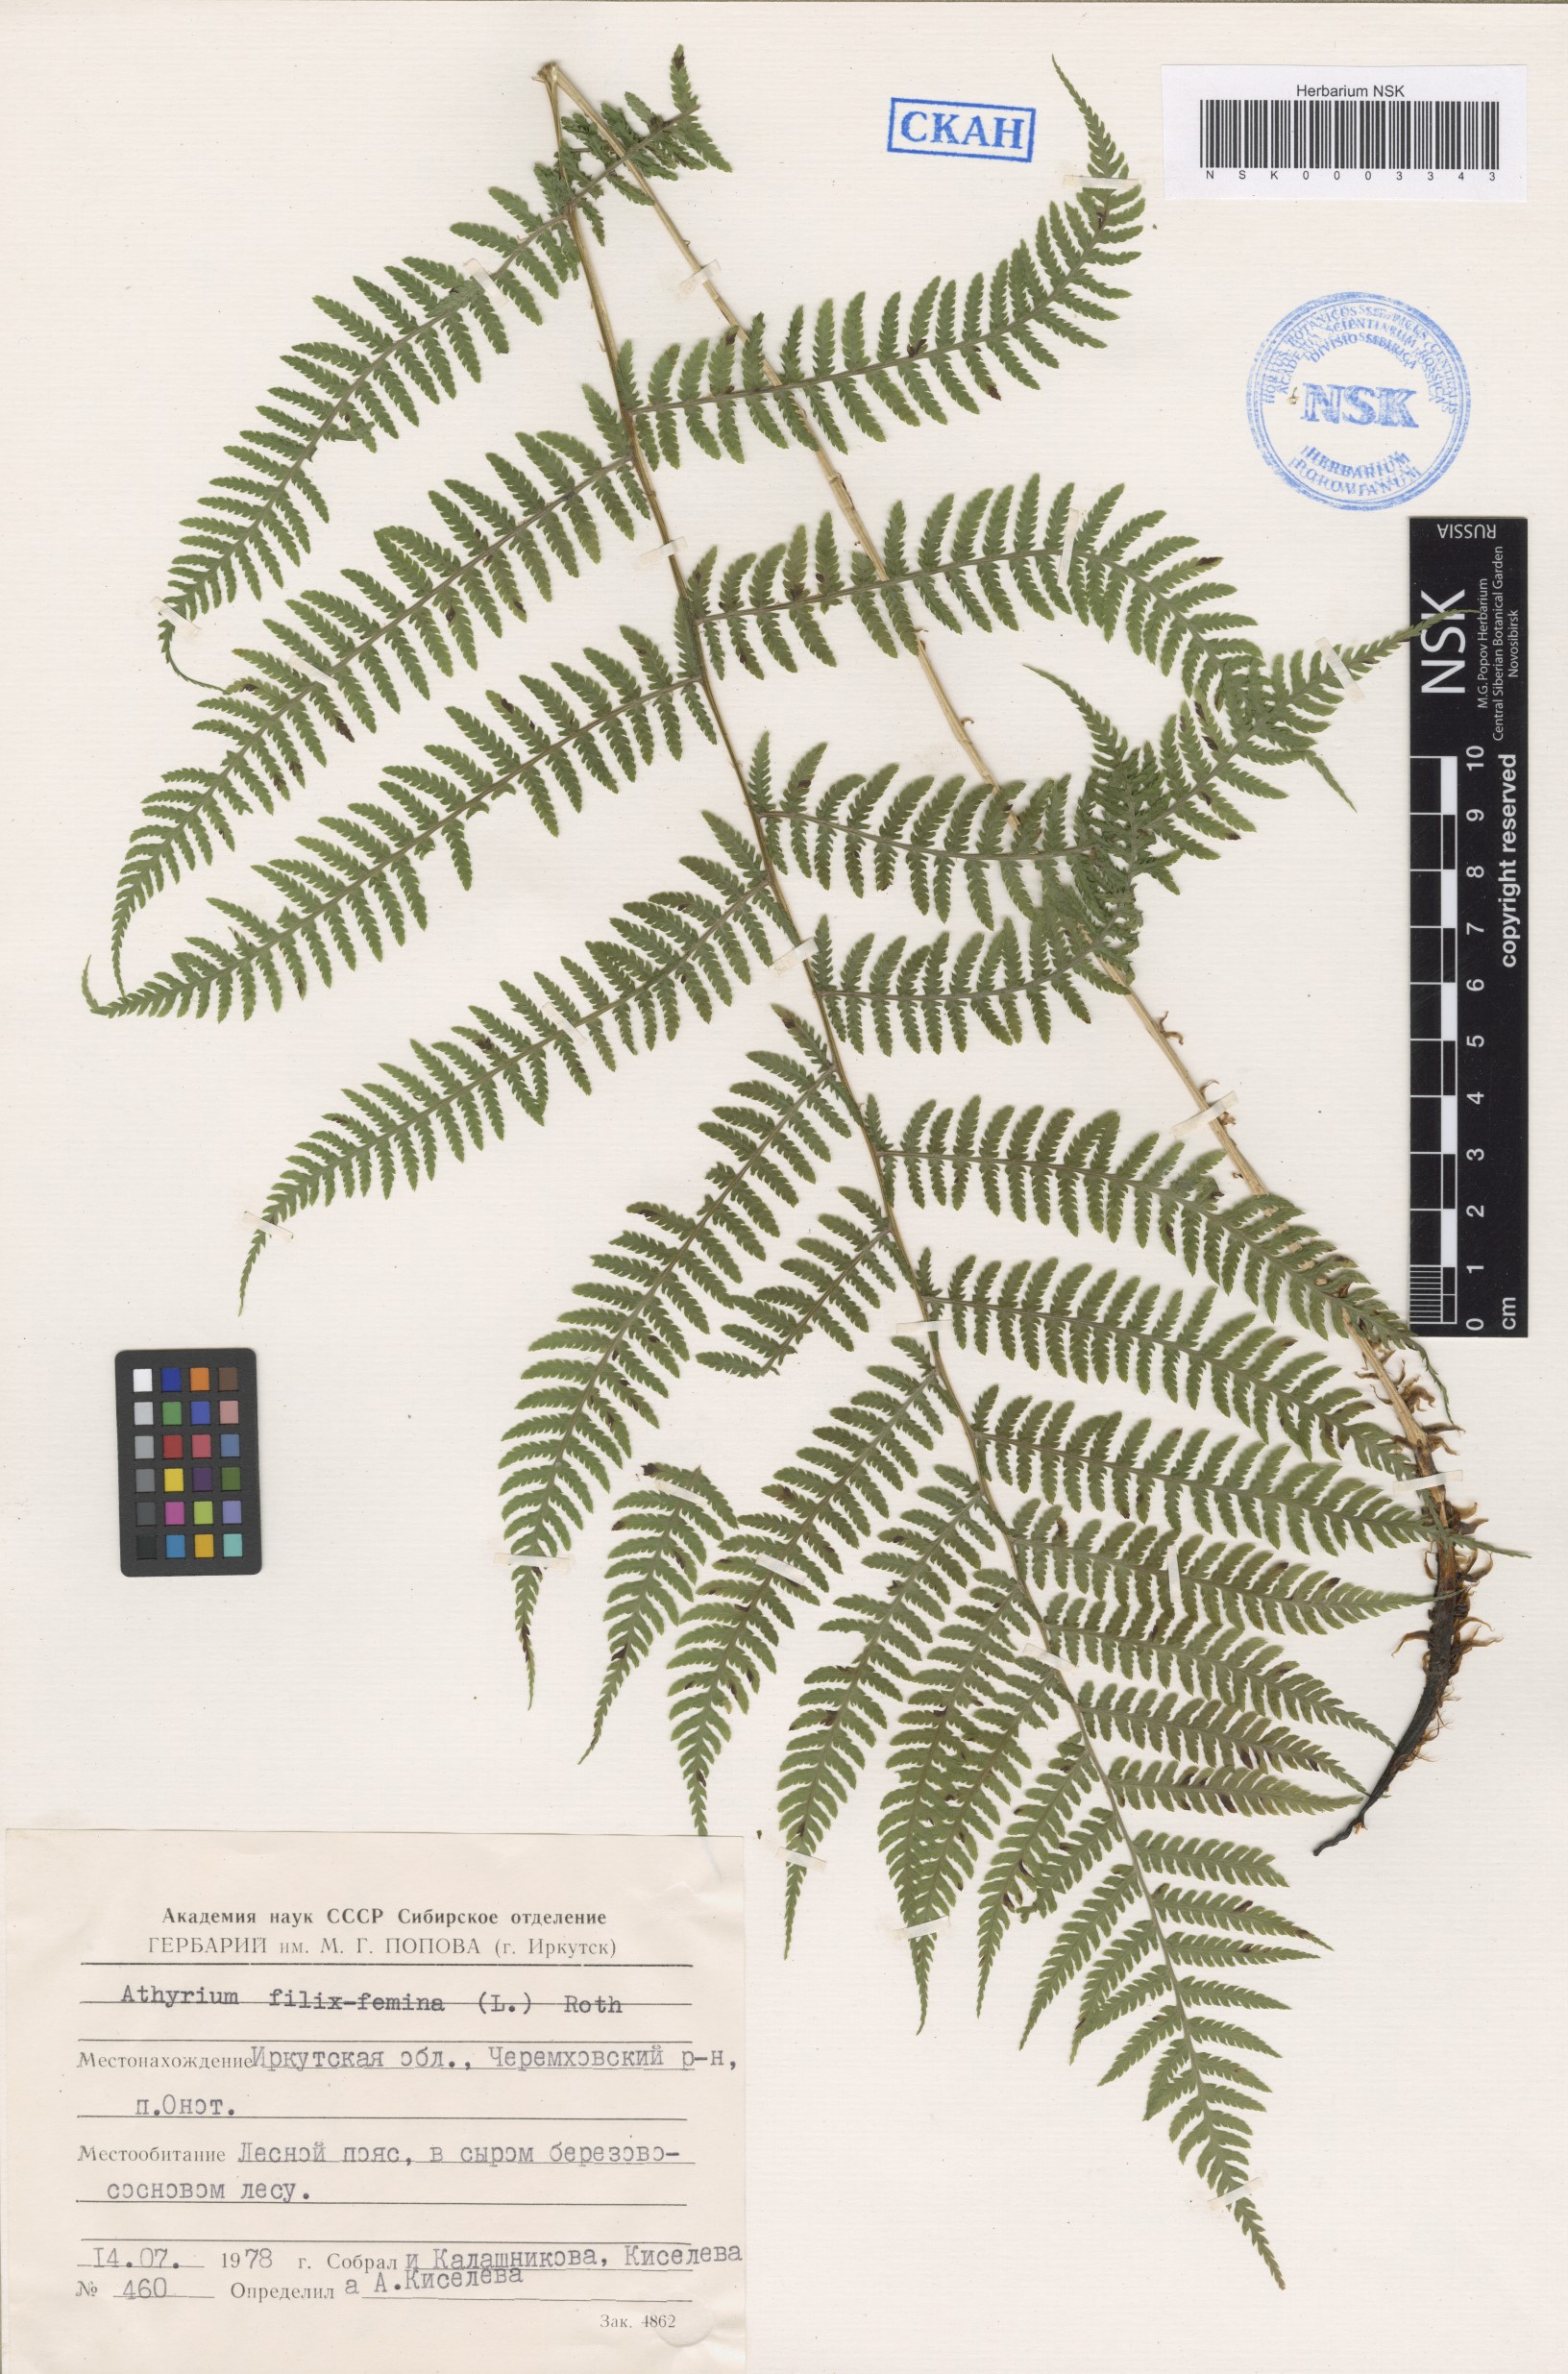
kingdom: Plantae
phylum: Tracheophyta
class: Polypodiopsida
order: Polypodiales
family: Athyriaceae
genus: Athyrium
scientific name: Athyrium filix-femina
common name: Lady fern
